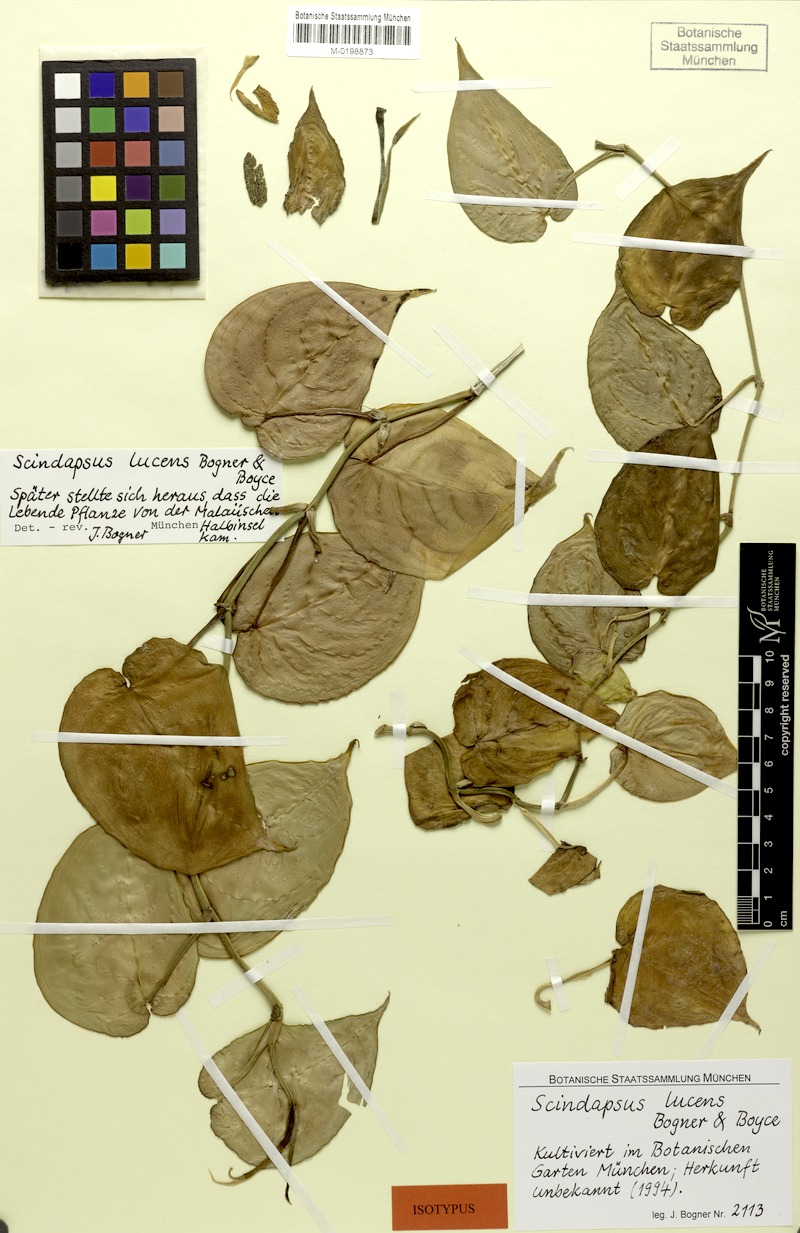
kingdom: Plantae
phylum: Tracheophyta
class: Liliopsida
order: Alismatales
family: Araceae
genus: Scindapsus
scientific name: Scindapsus lucens
